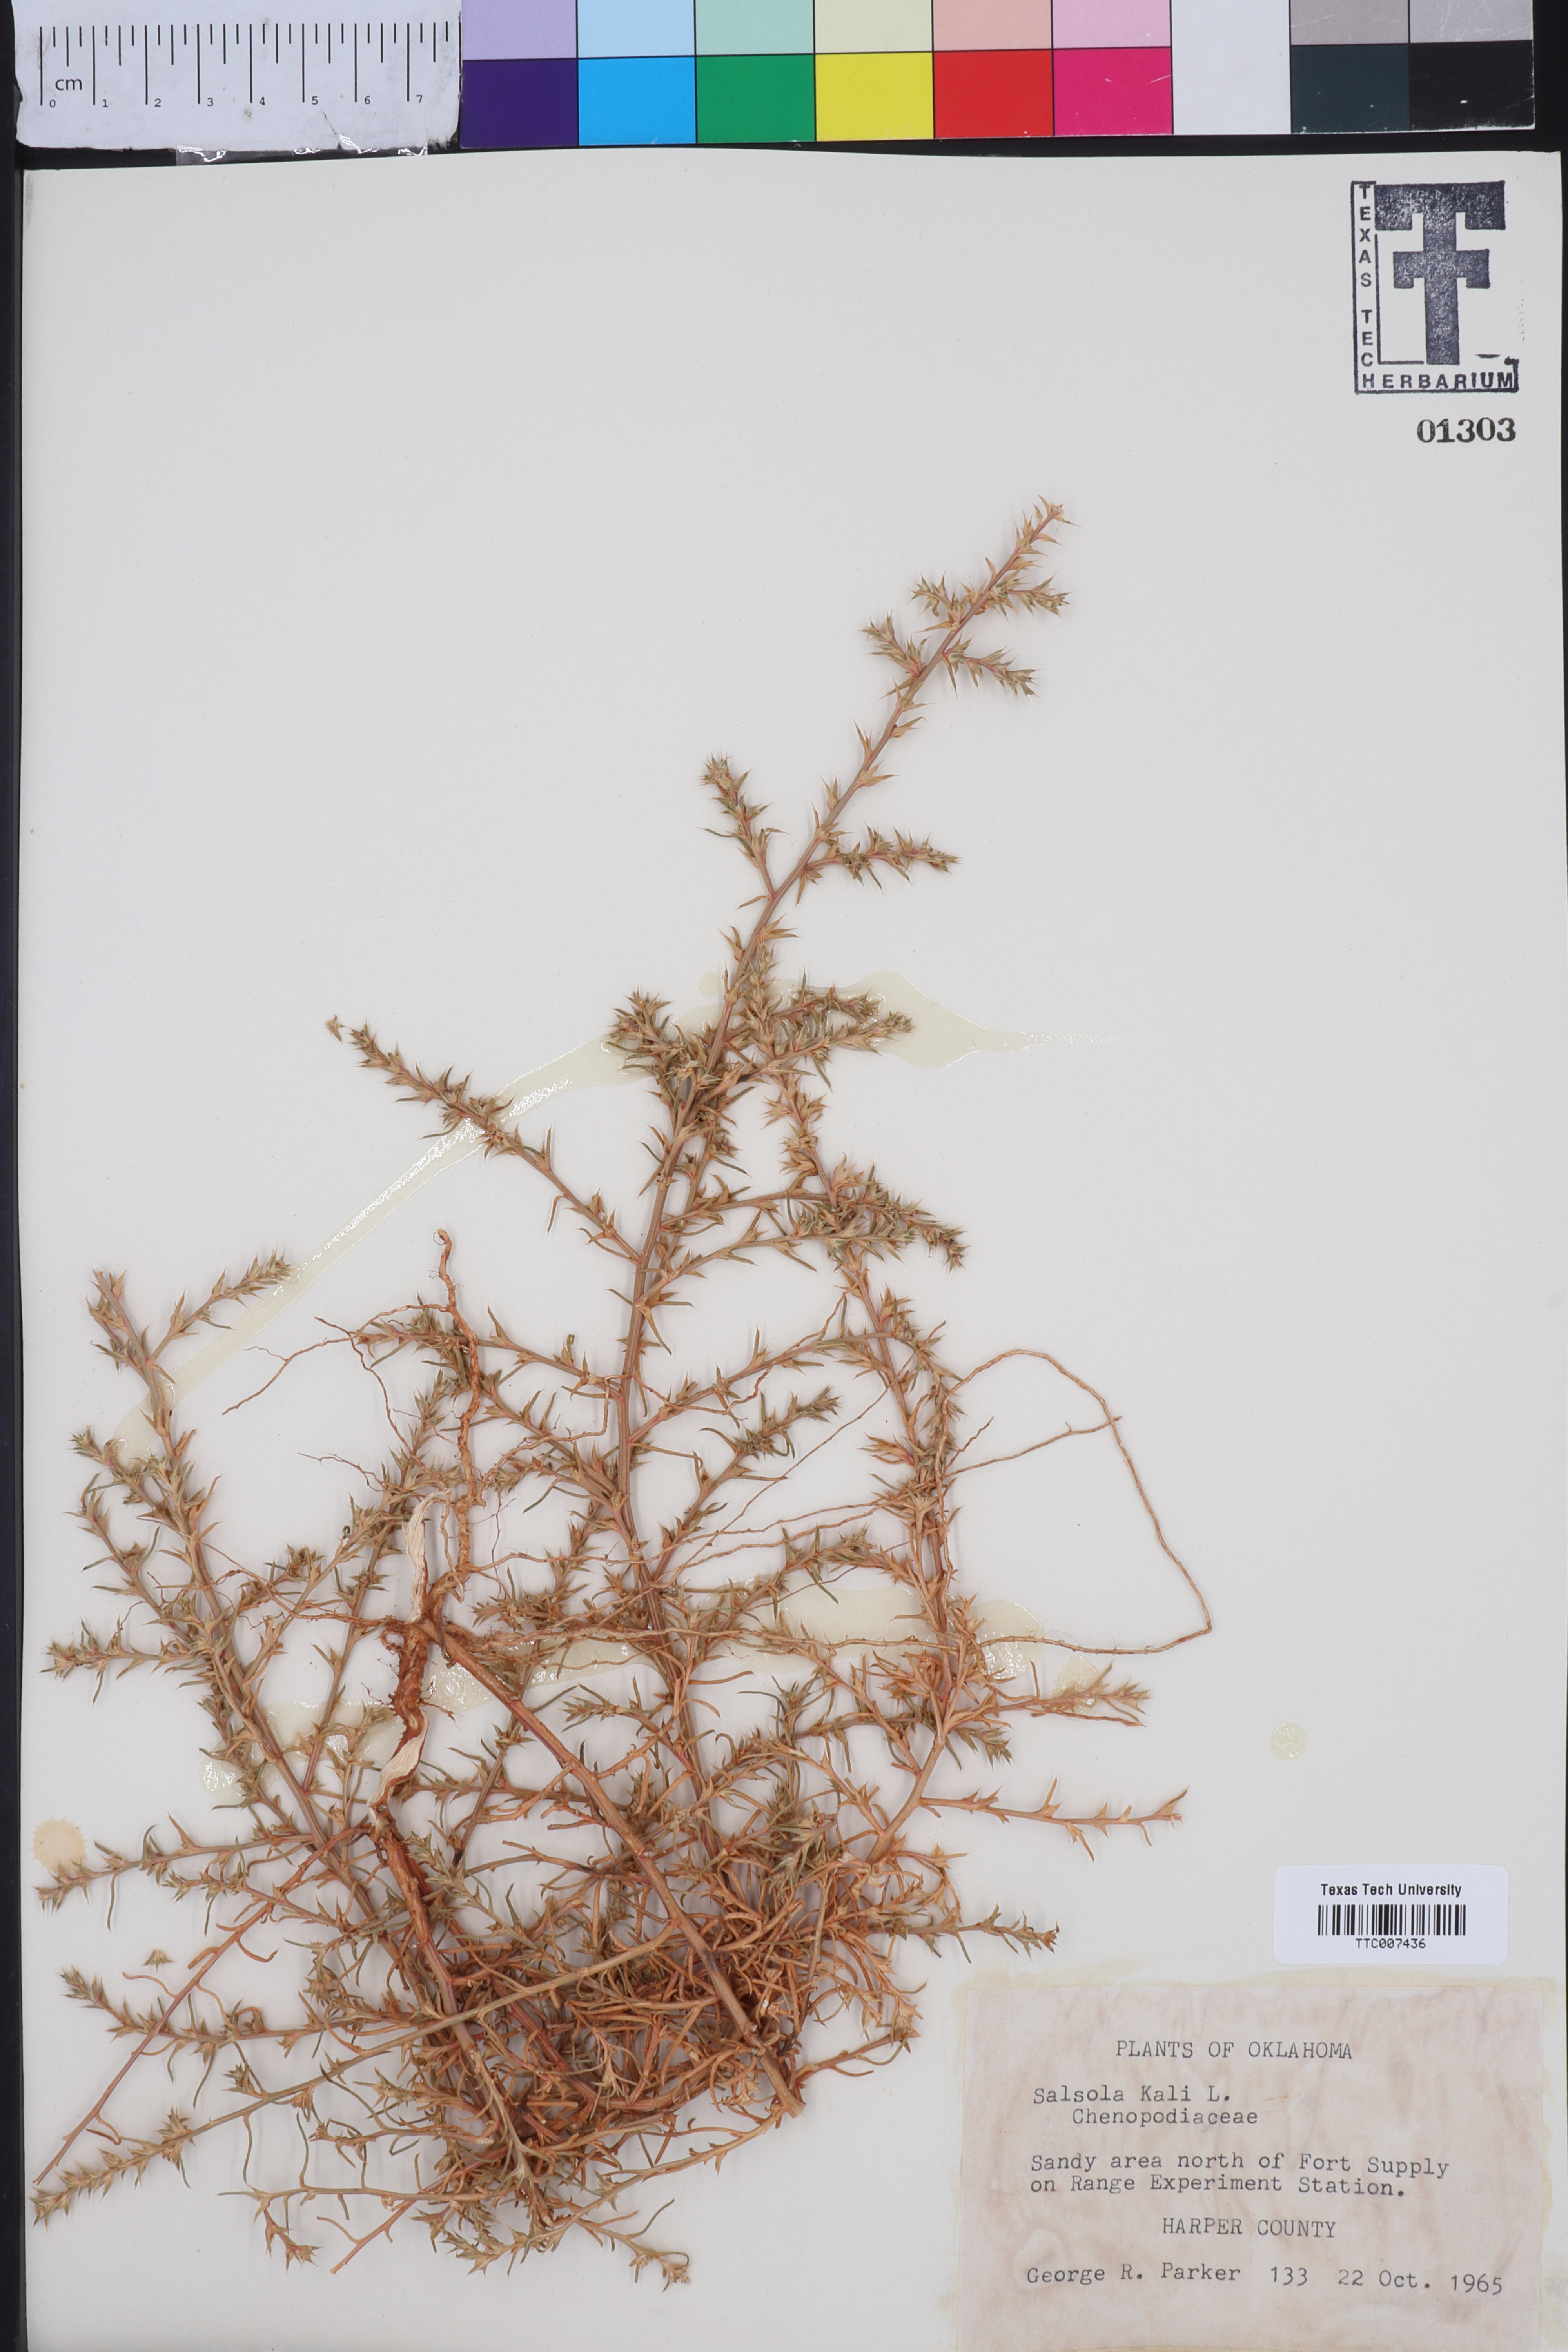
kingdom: Plantae
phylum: Tracheophyta
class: Magnoliopsida
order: Caryophyllales
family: Amaranthaceae
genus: Salsola
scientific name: Salsola kali
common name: Saltwort
